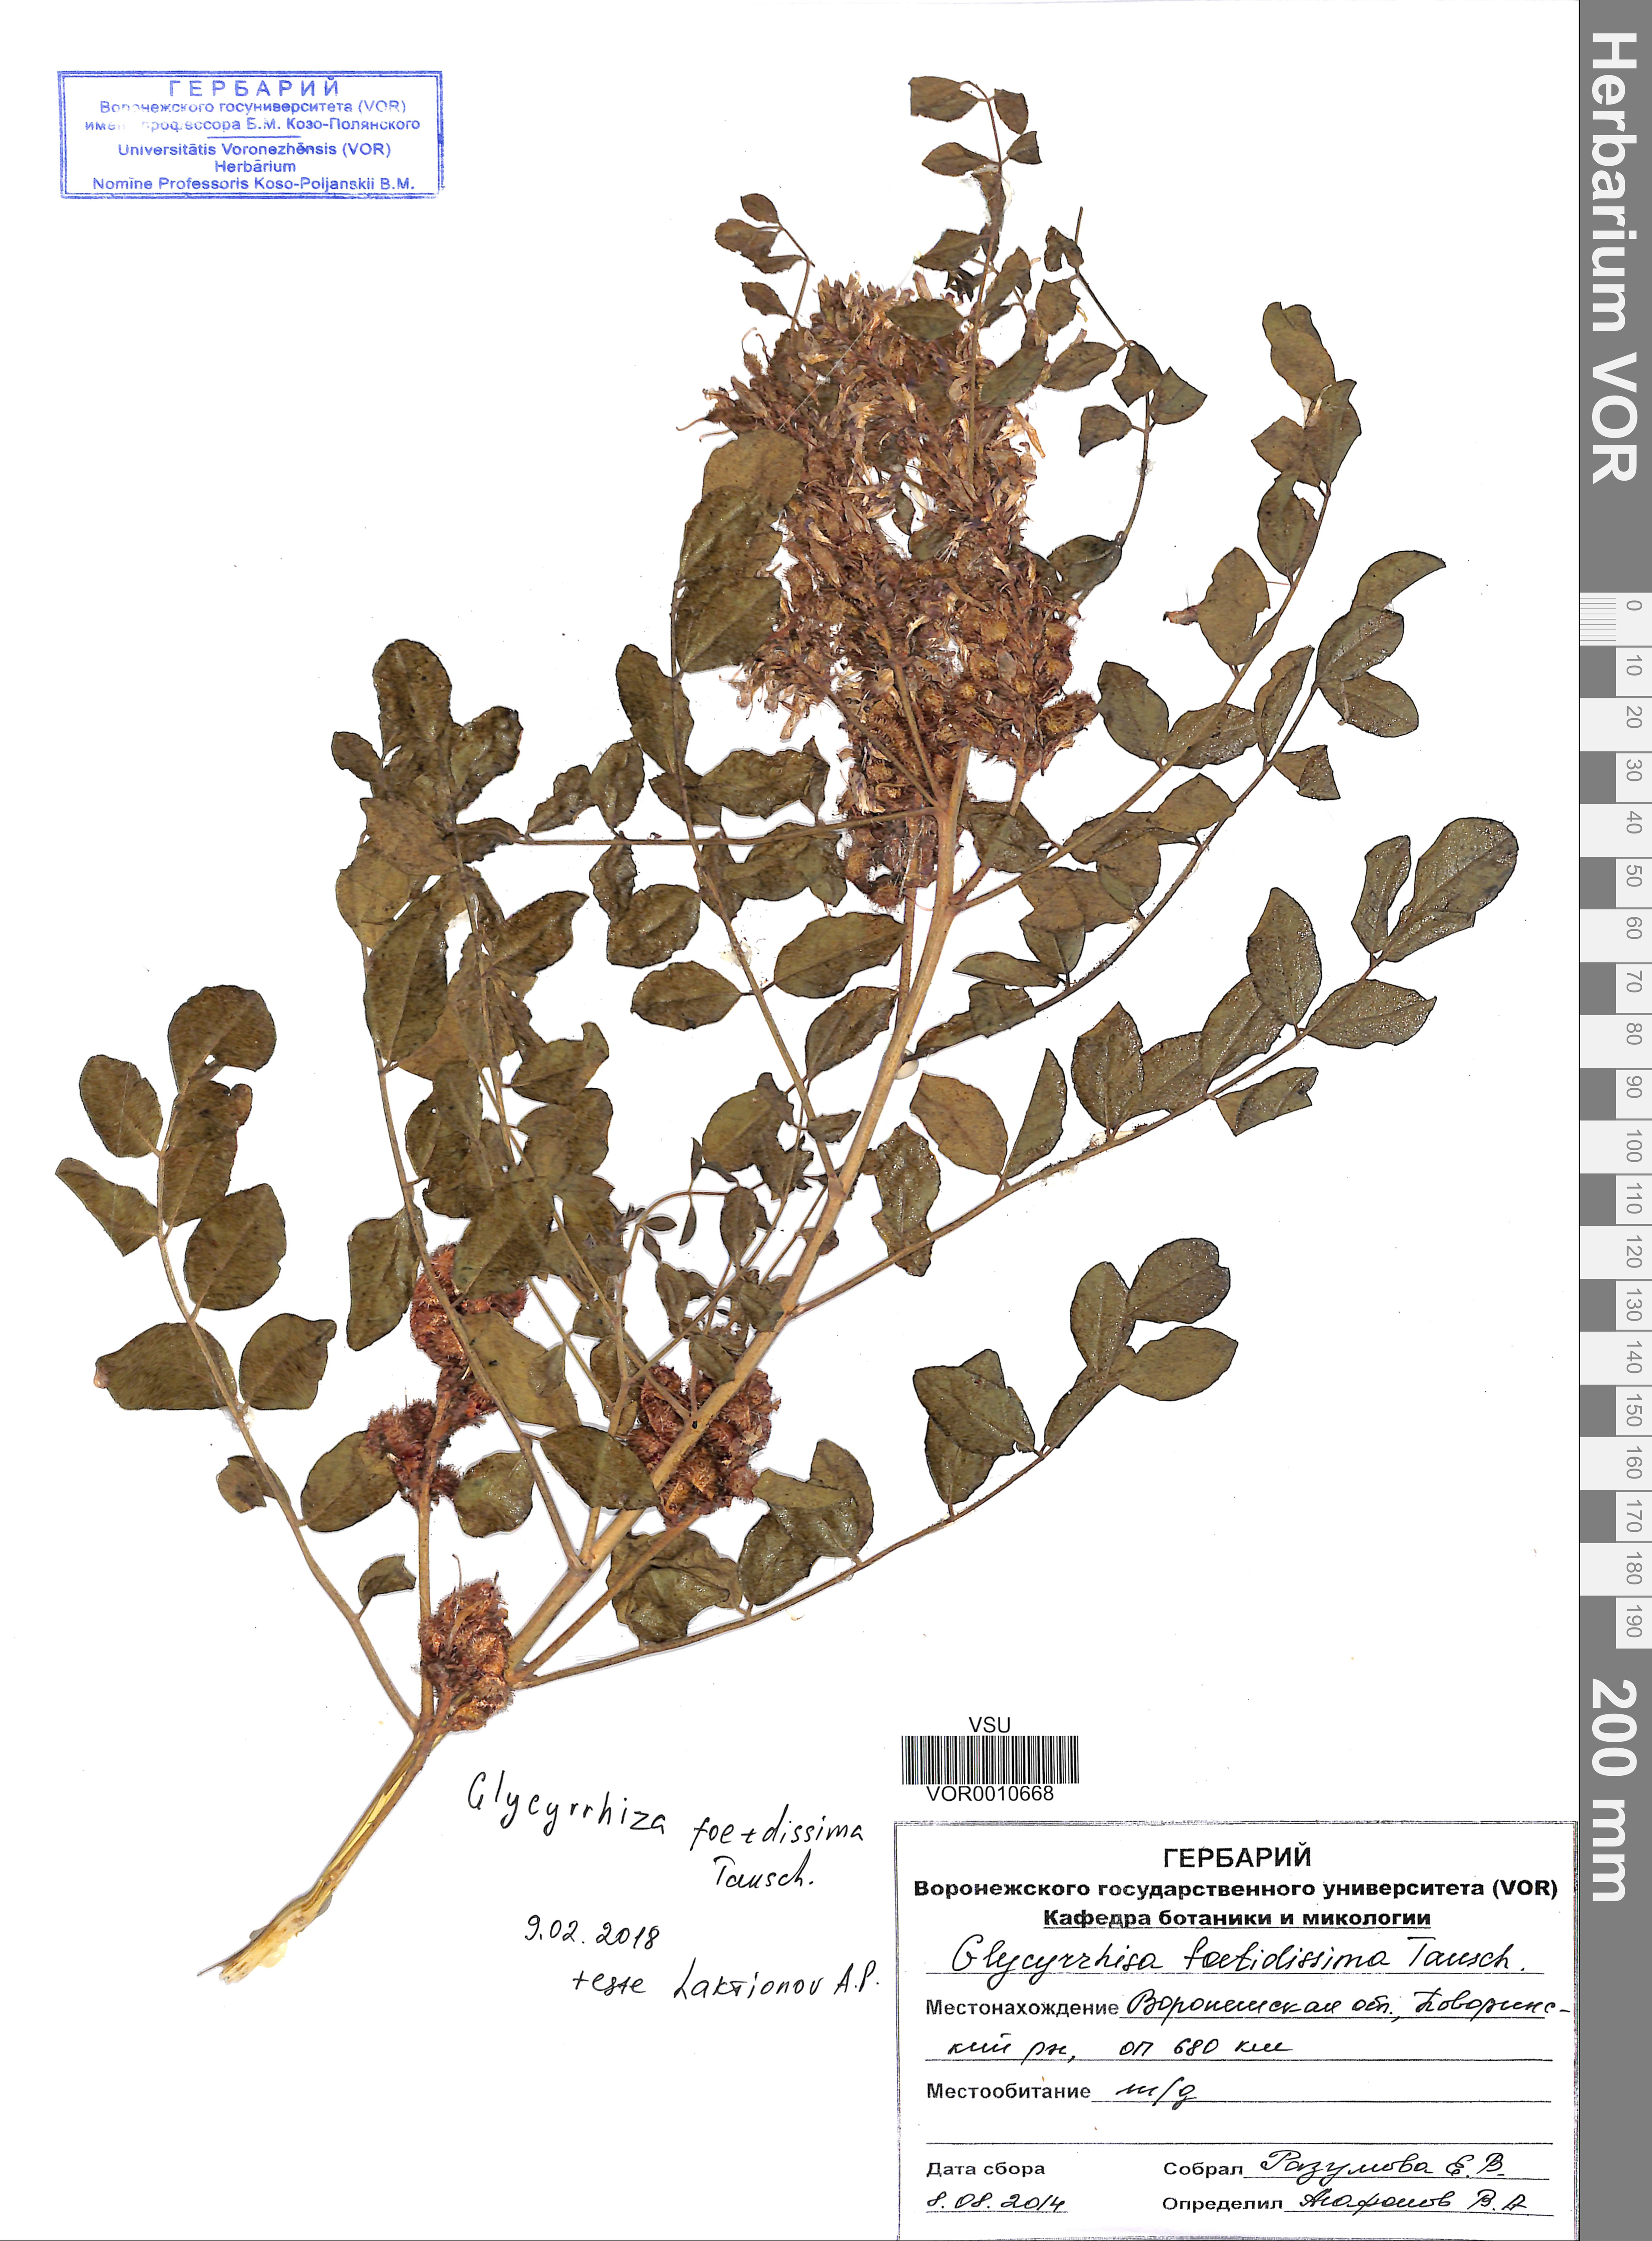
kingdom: Plantae
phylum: Tracheophyta
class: Magnoliopsida
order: Fabales
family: Fabaceae
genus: Glycyrrhiza
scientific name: Glycyrrhiza echinata
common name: German liquorice
